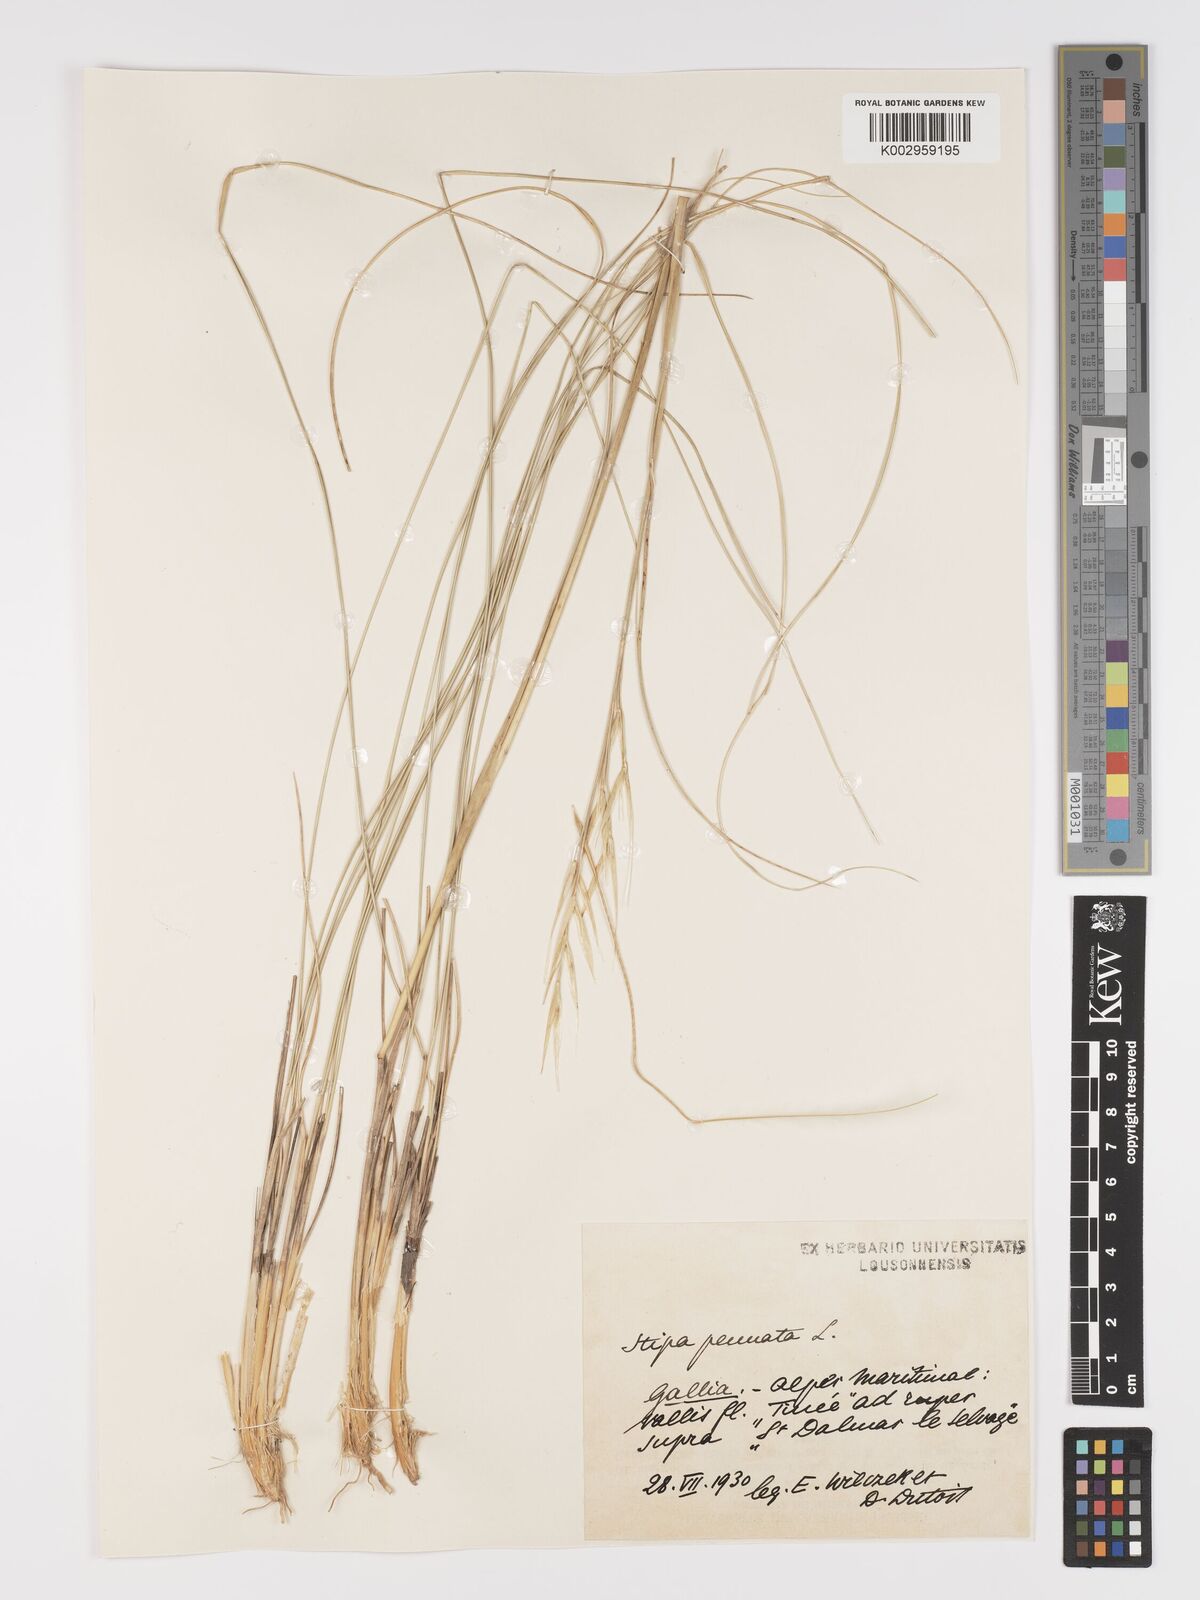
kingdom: Plantae
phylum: Tracheophyta
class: Liliopsida
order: Poales
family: Poaceae
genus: Stipa
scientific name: Stipa pennata
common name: European feather grass
